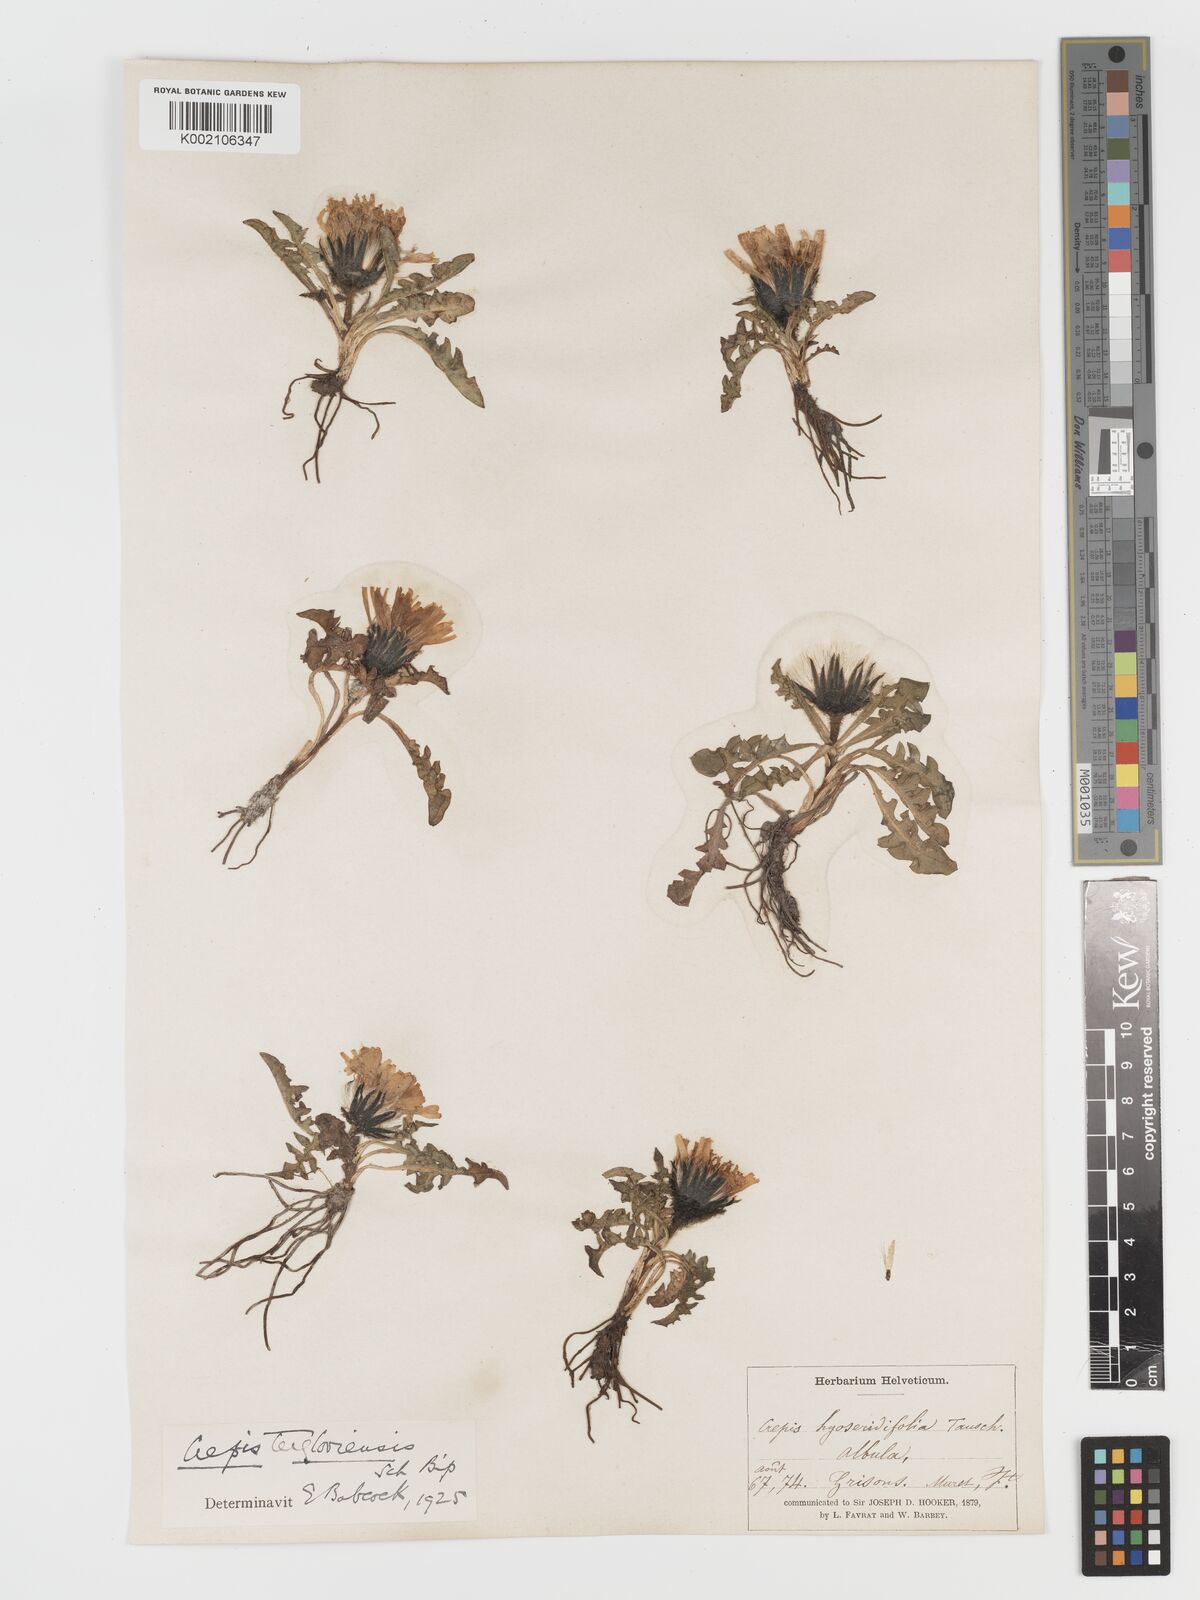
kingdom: Plantae
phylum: Tracheophyta
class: Magnoliopsida
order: Asterales
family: Asteraceae
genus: Crepis
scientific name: Crepis
